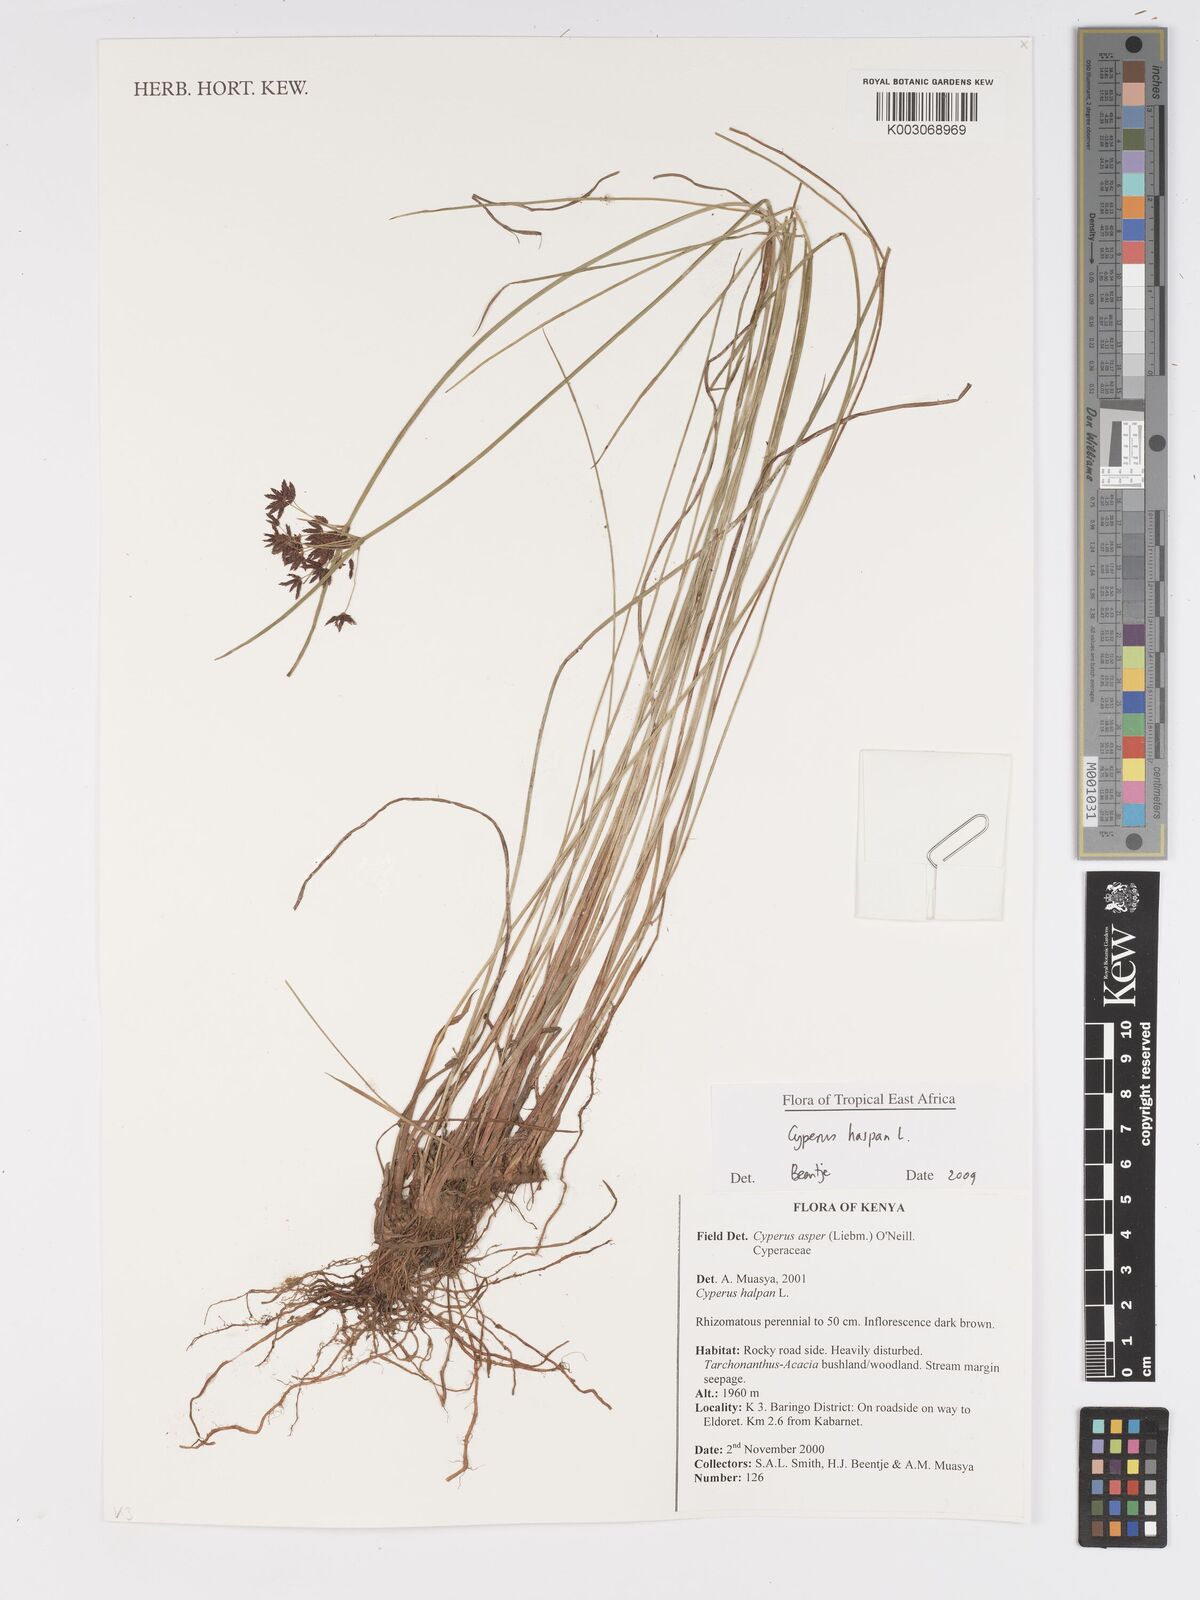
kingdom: Plantae
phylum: Tracheophyta
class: Liliopsida
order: Poales
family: Cyperaceae
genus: Cyperus
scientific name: Cyperus haspan
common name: Haspan flatsedge
